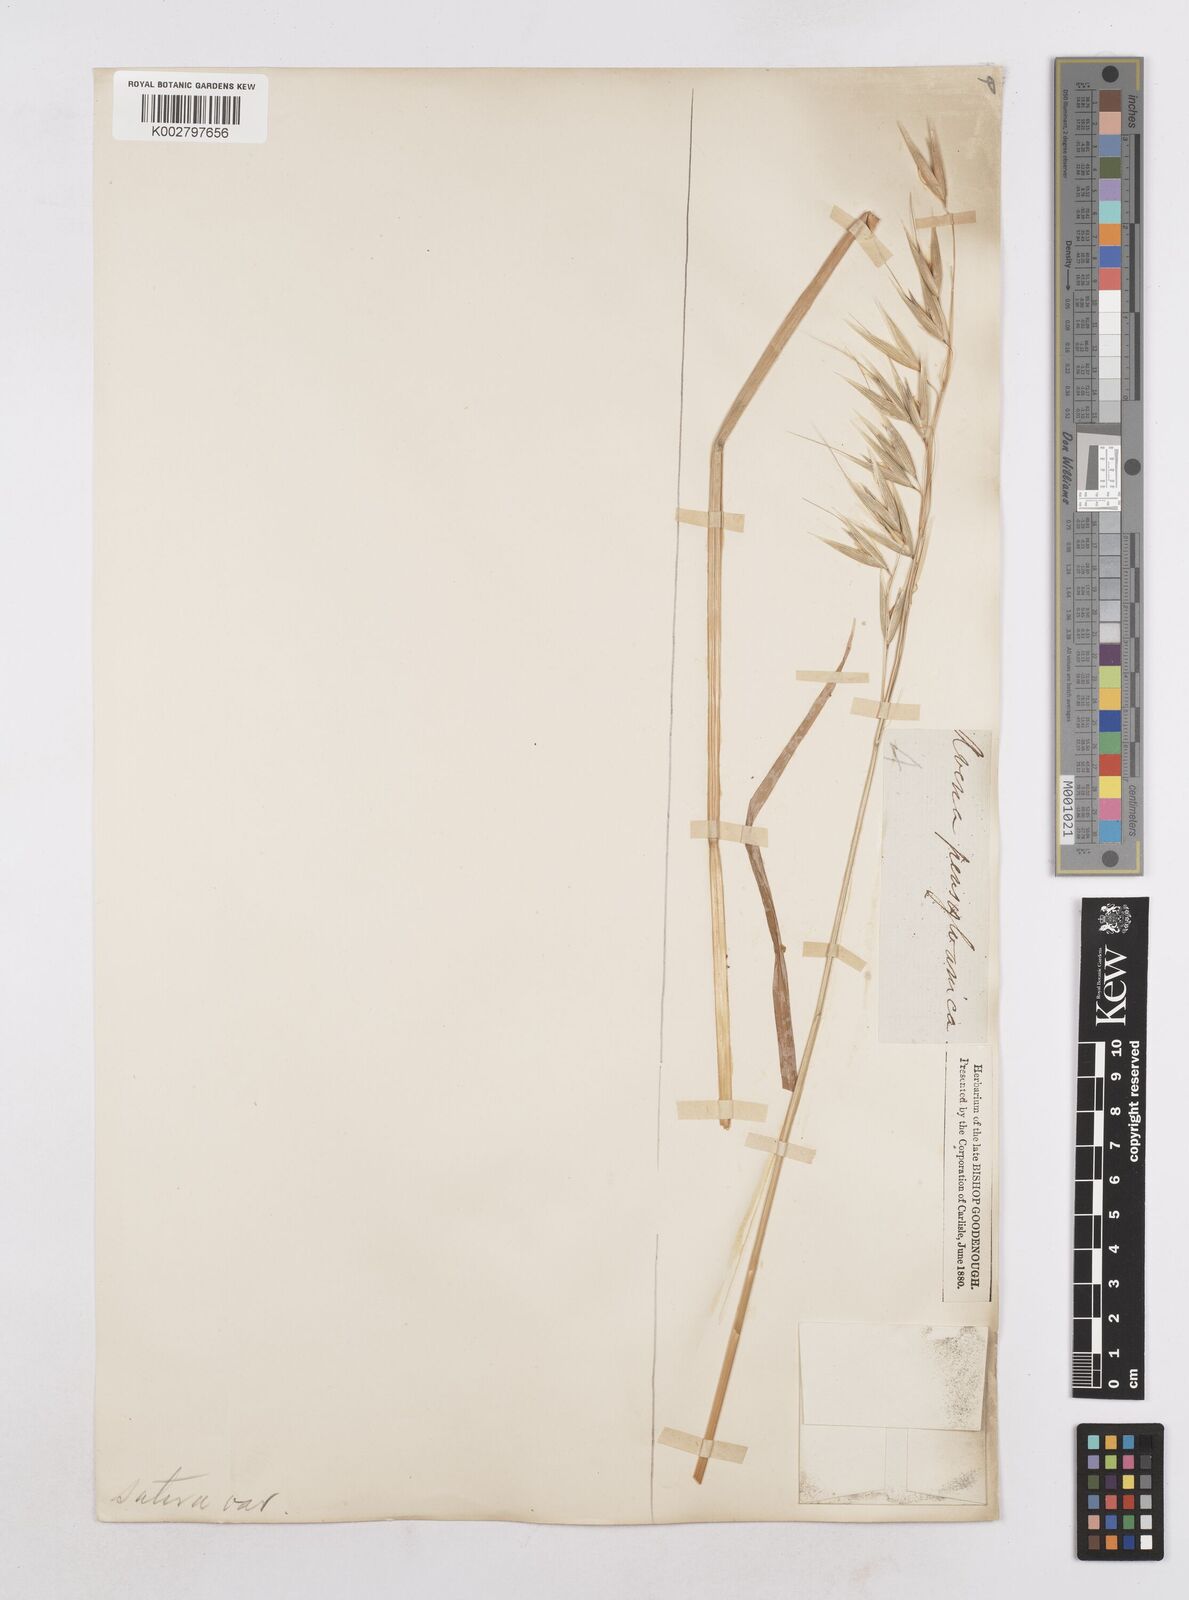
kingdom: Plantae
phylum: Tracheophyta
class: Liliopsida
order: Poales
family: Poaceae
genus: Avena
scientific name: Avena byzantina
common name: Algerian oat
